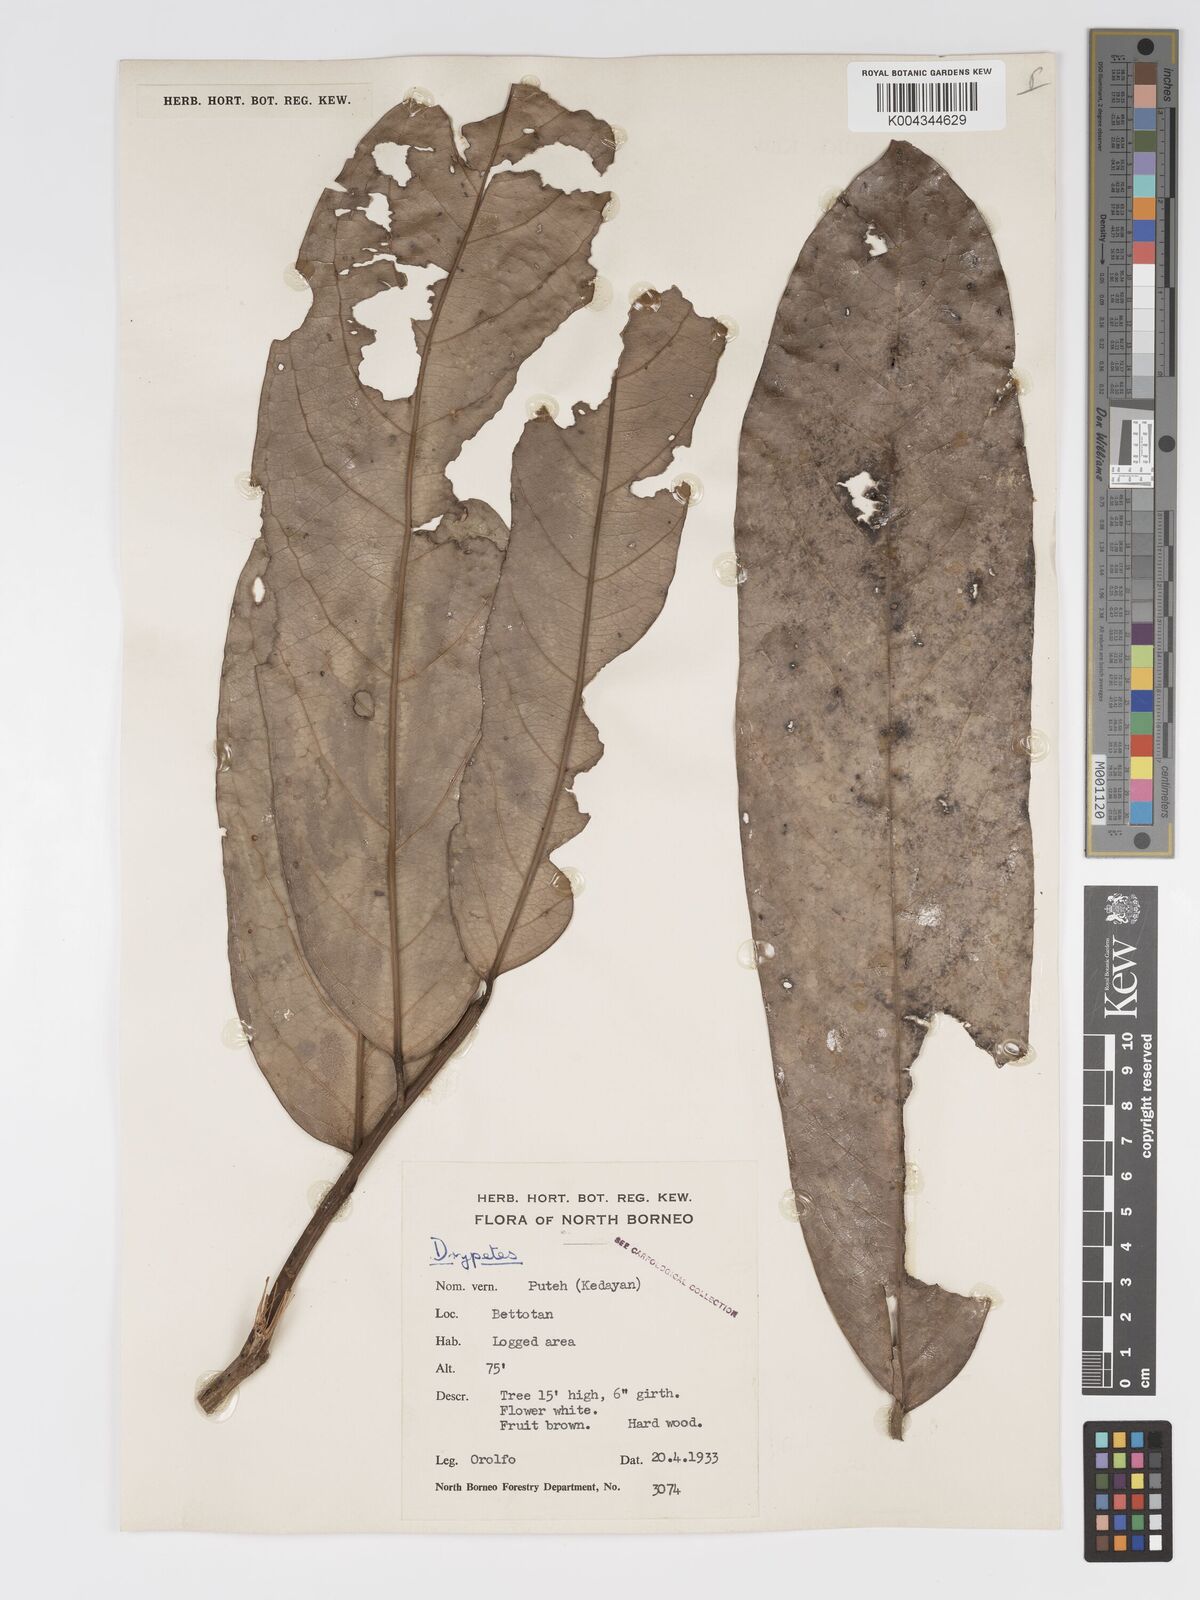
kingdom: Plantae
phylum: Tracheophyta
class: Magnoliopsida
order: Malpighiales
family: Putranjivaceae
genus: Drypetes
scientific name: Drypetes longifolia
